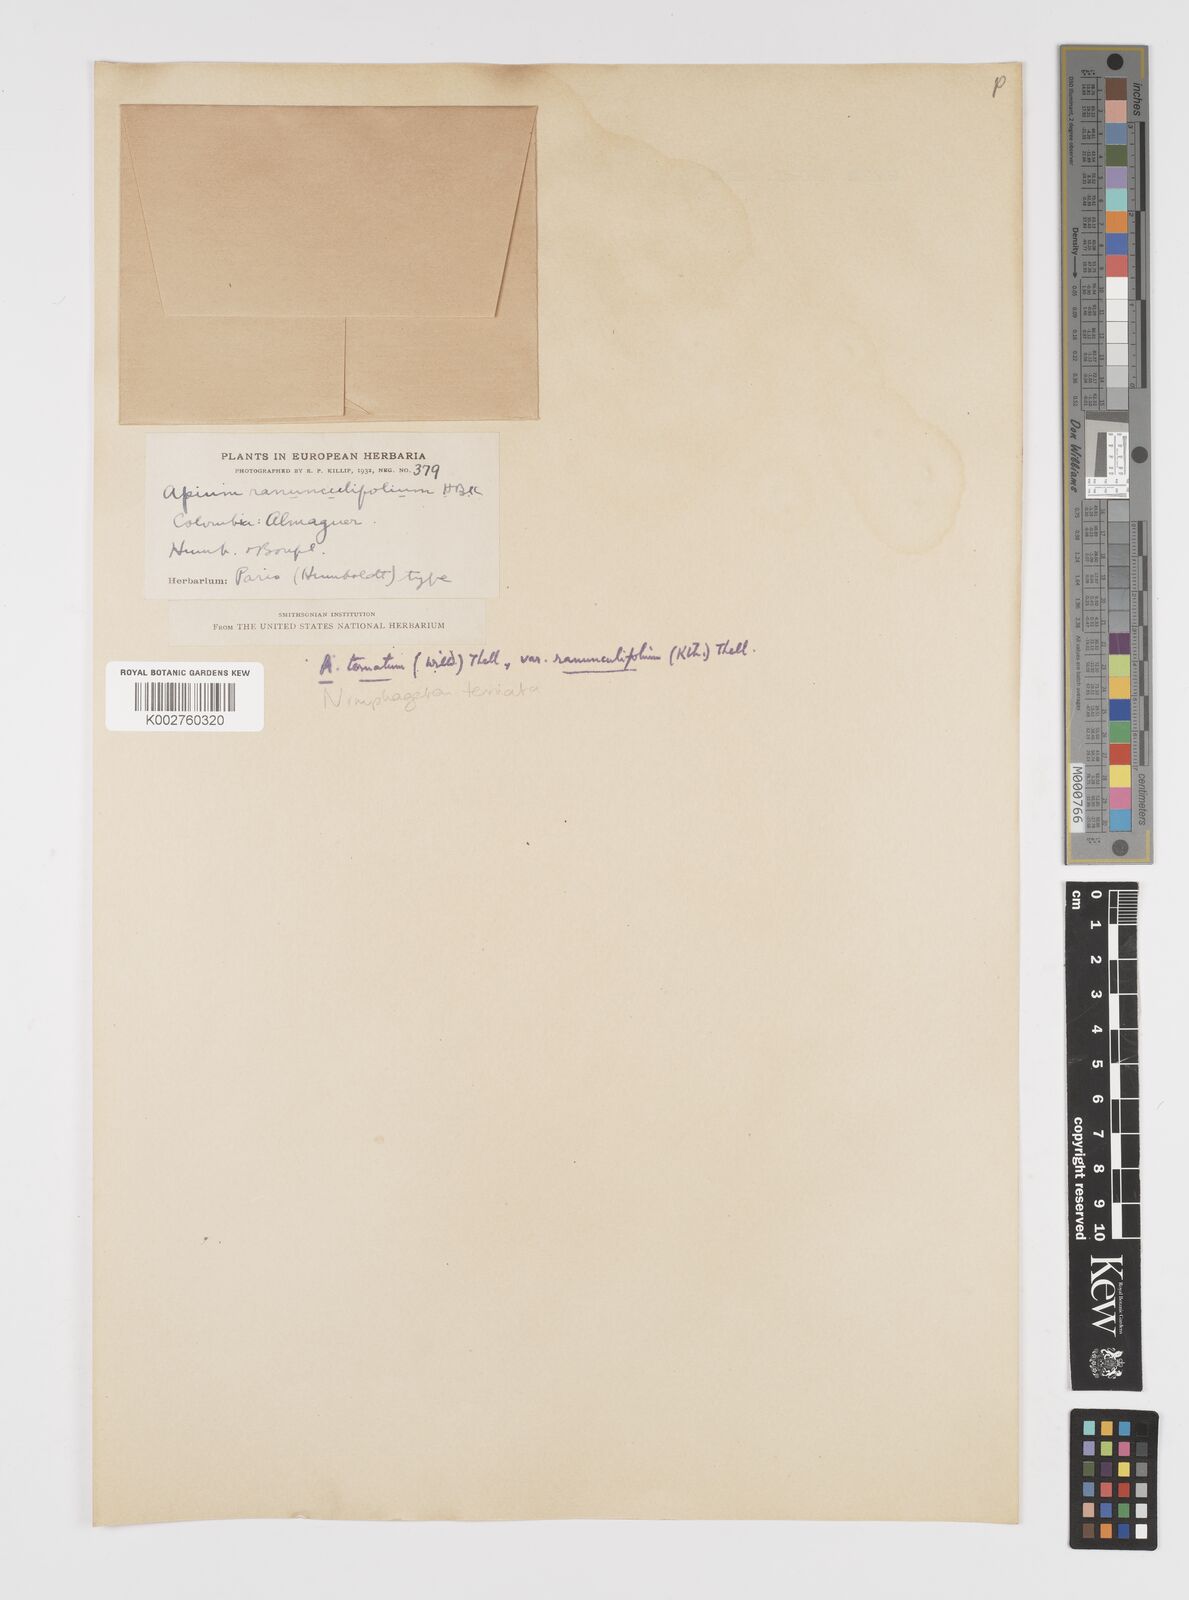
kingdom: Plantae
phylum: Tracheophyta
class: Magnoliopsida
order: Apiales
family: Apiaceae
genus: Niphogeton
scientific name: Niphogeton ternata
